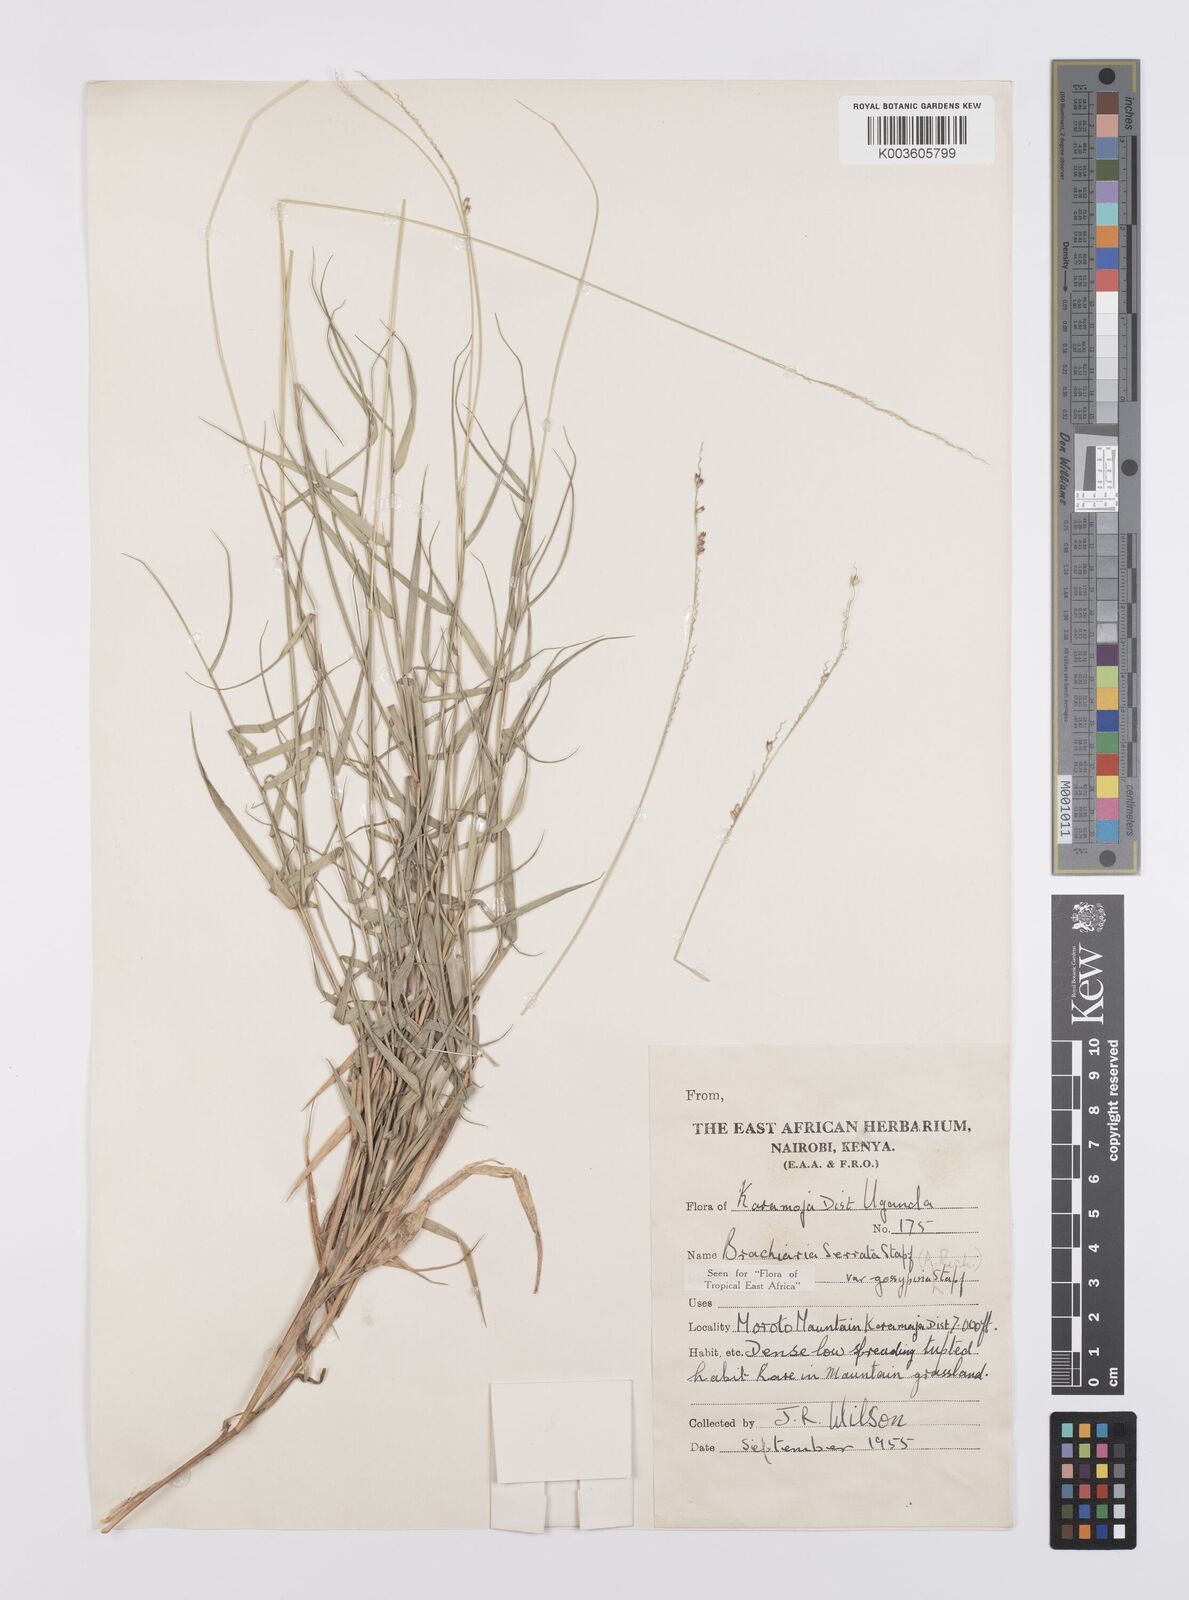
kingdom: Plantae
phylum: Tracheophyta
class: Liliopsida
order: Poales
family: Poaceae
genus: Urochloa
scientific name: Urochloa serrata
